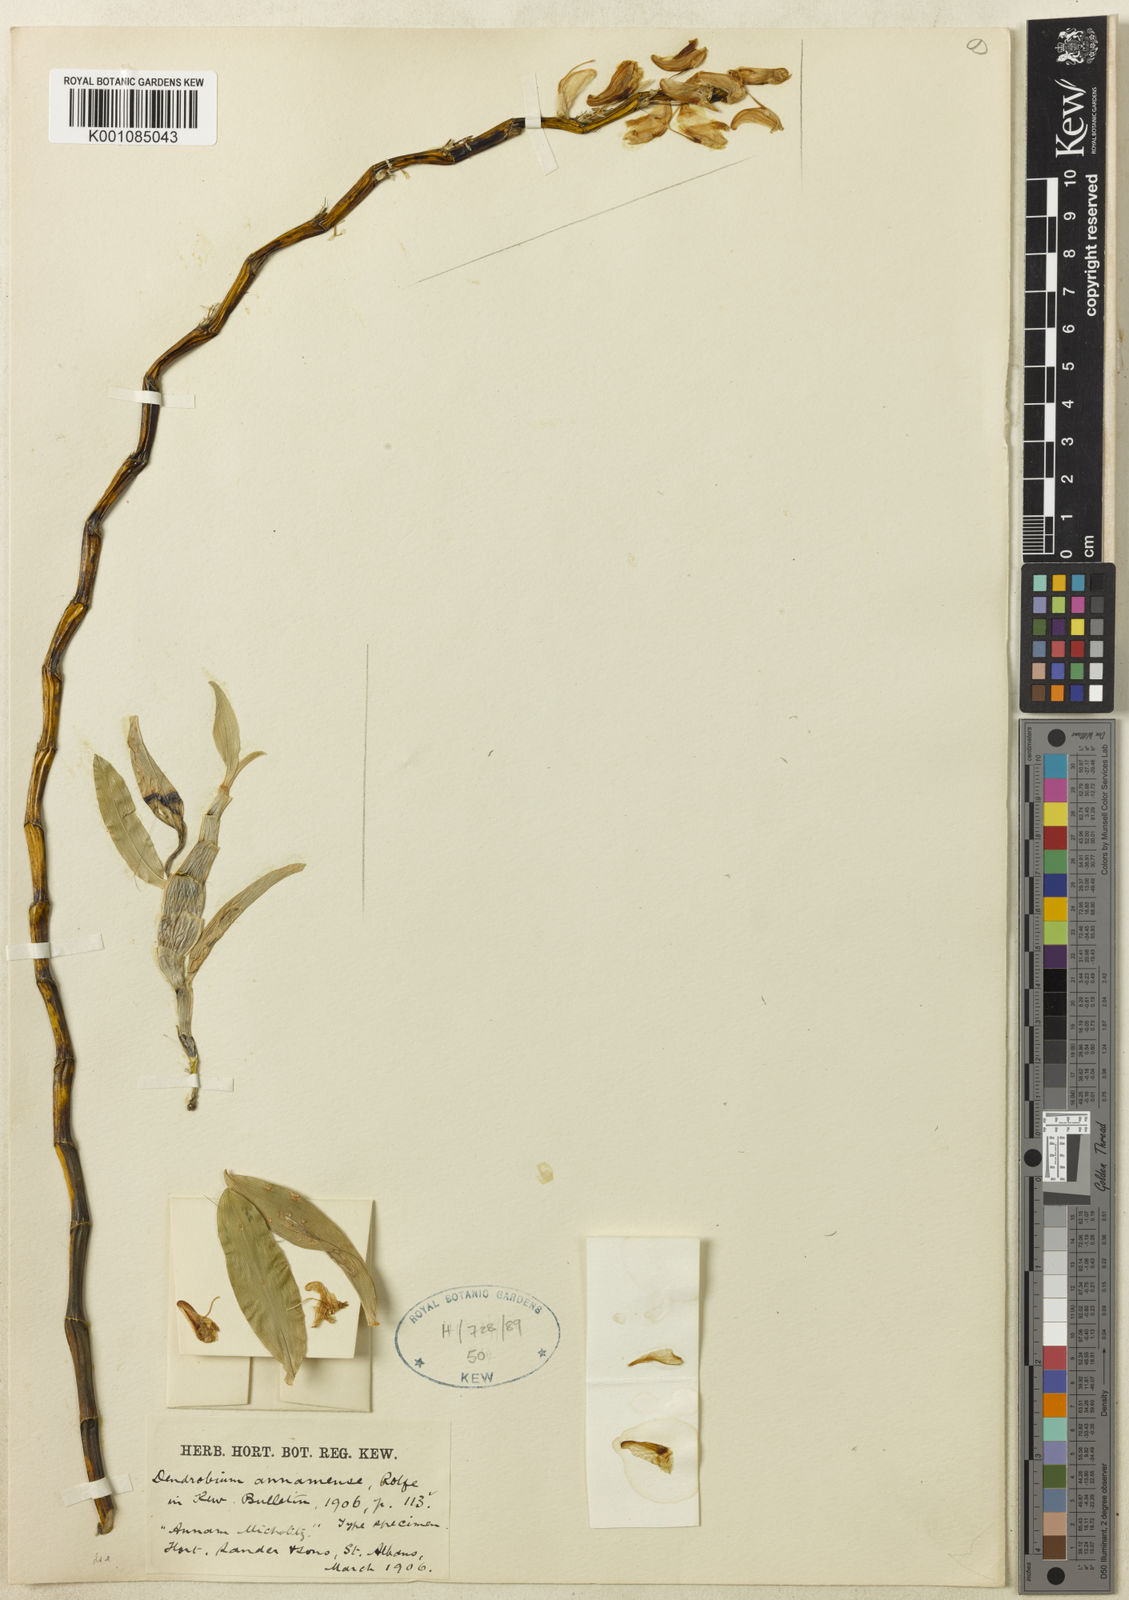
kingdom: Plantae
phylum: Tracheophyta
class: Liliopsida
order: Asparagales
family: Orchidaceae
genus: Dendrobium
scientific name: Dendrobium annamense
